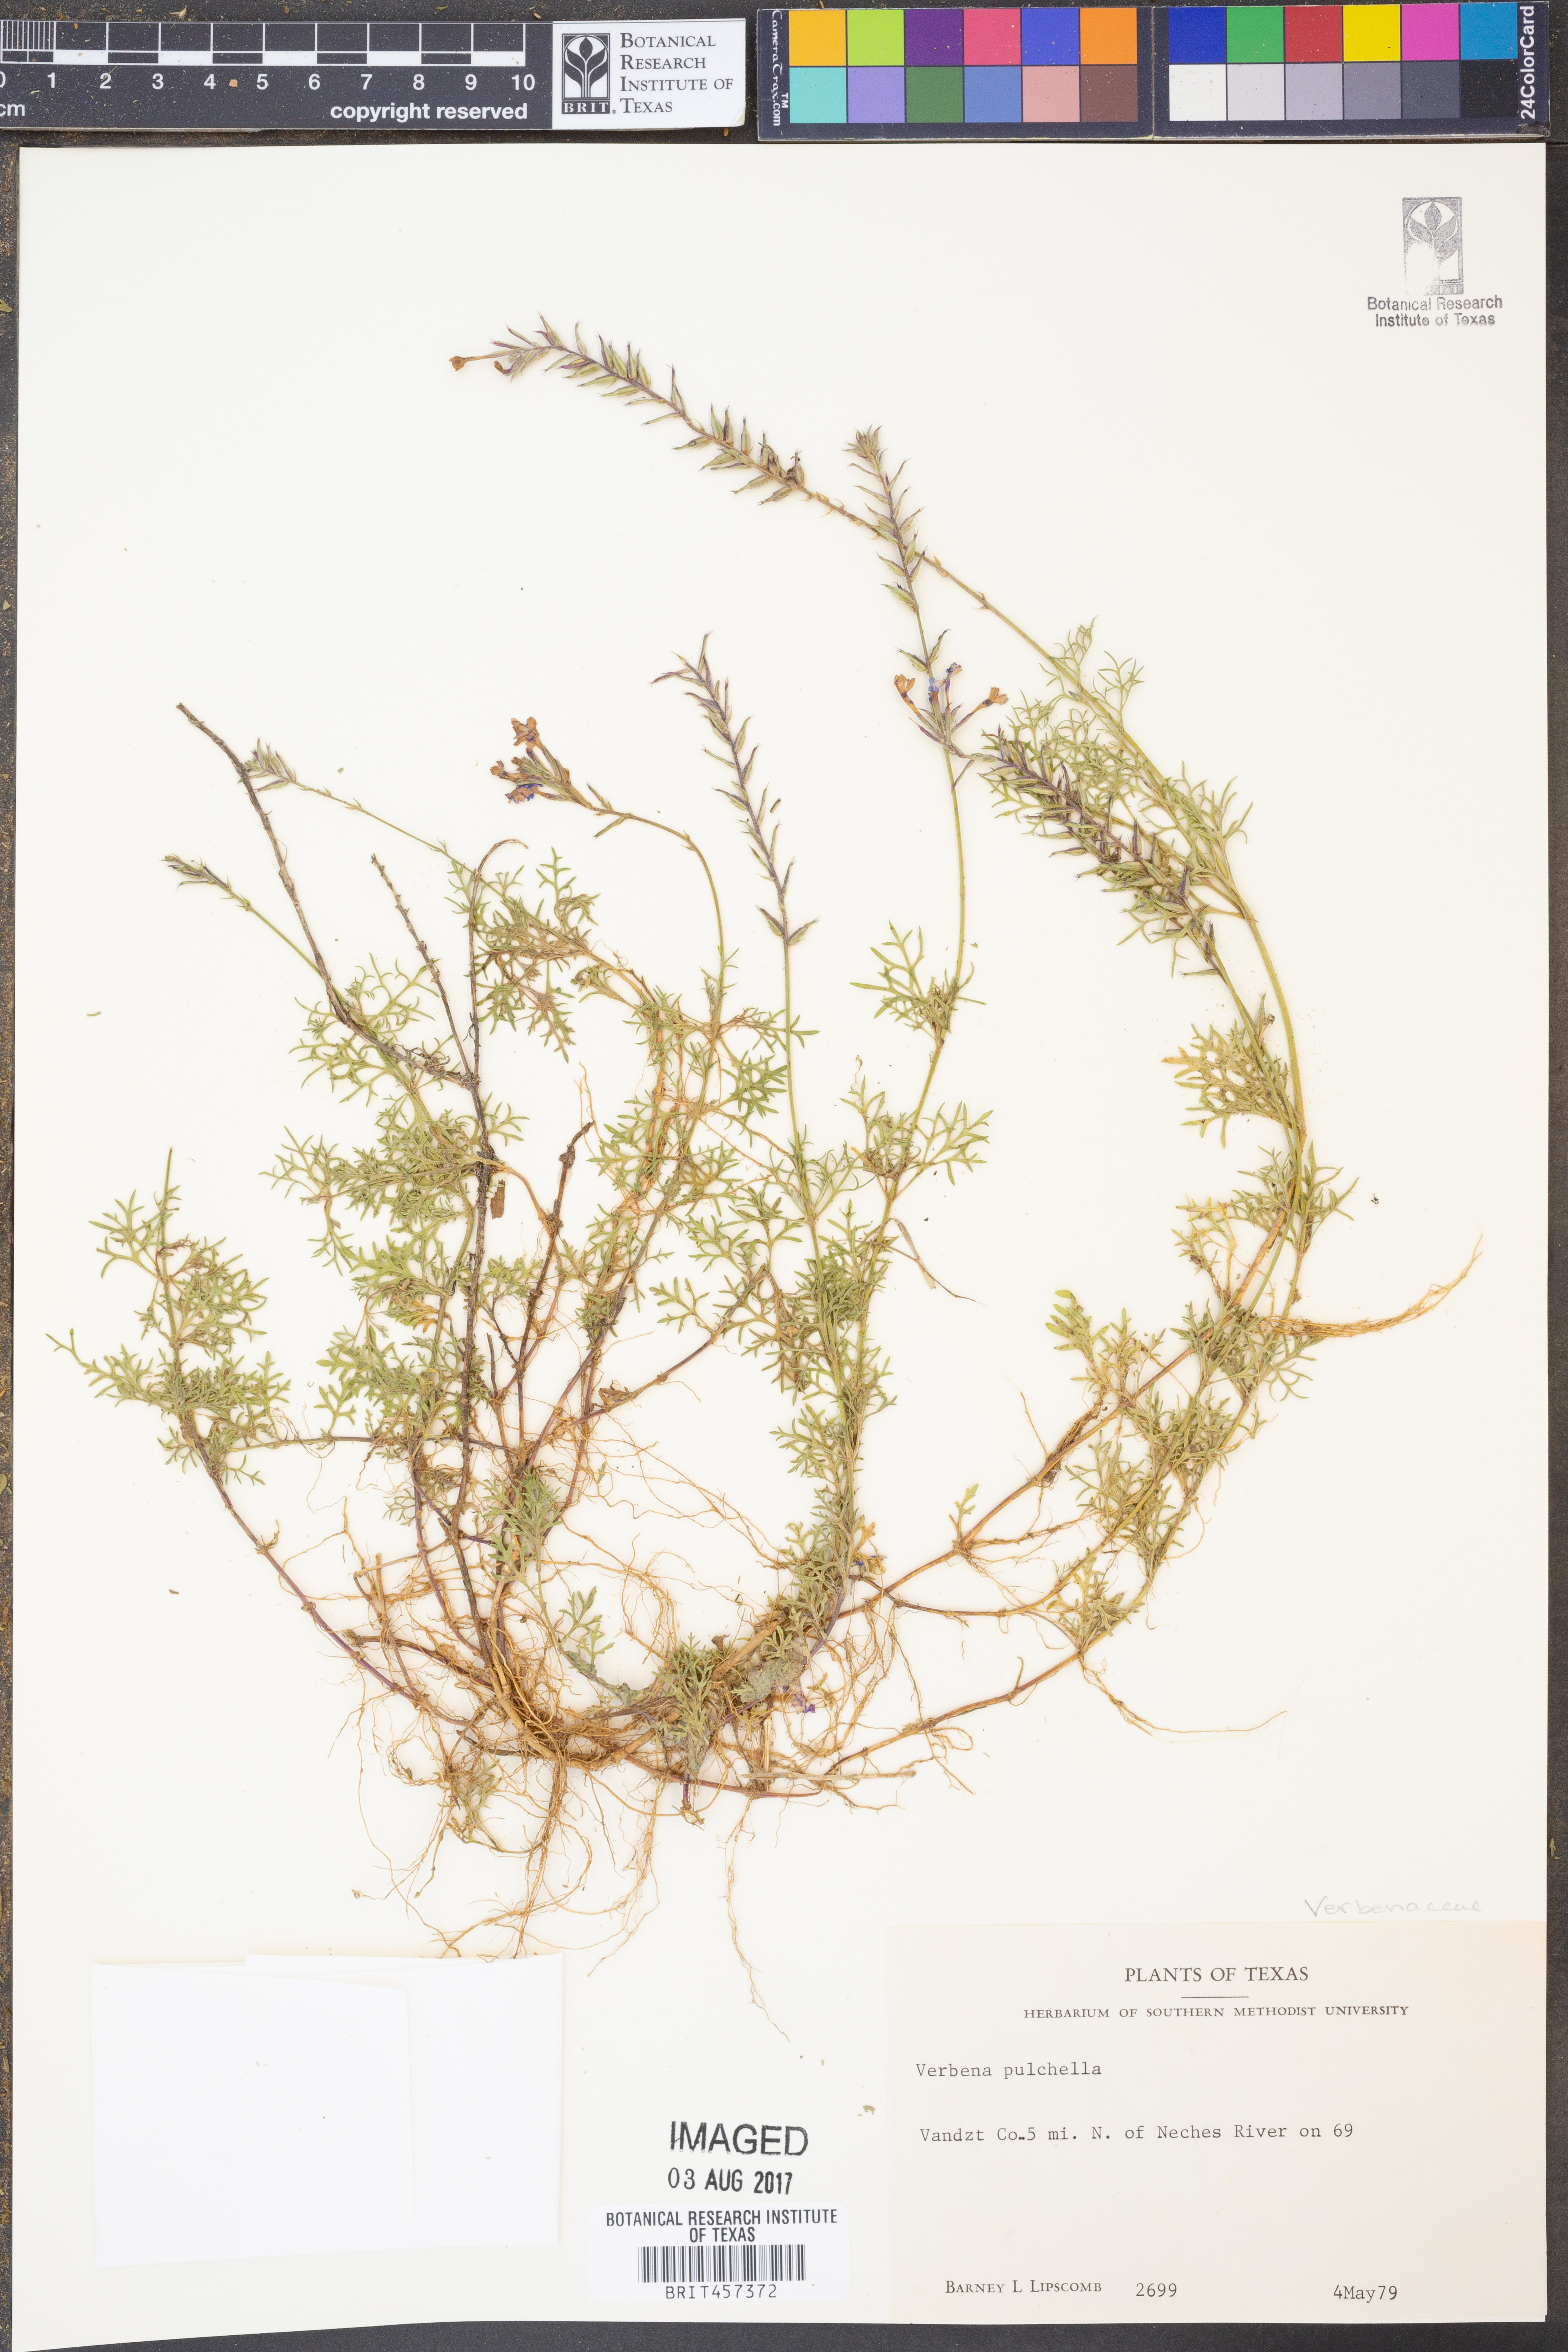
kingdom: Plantae
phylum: Tracheophyta
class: Magnoliopsida
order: Lamiales
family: Verbenaceae
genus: Verbena
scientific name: Verbena tenera
